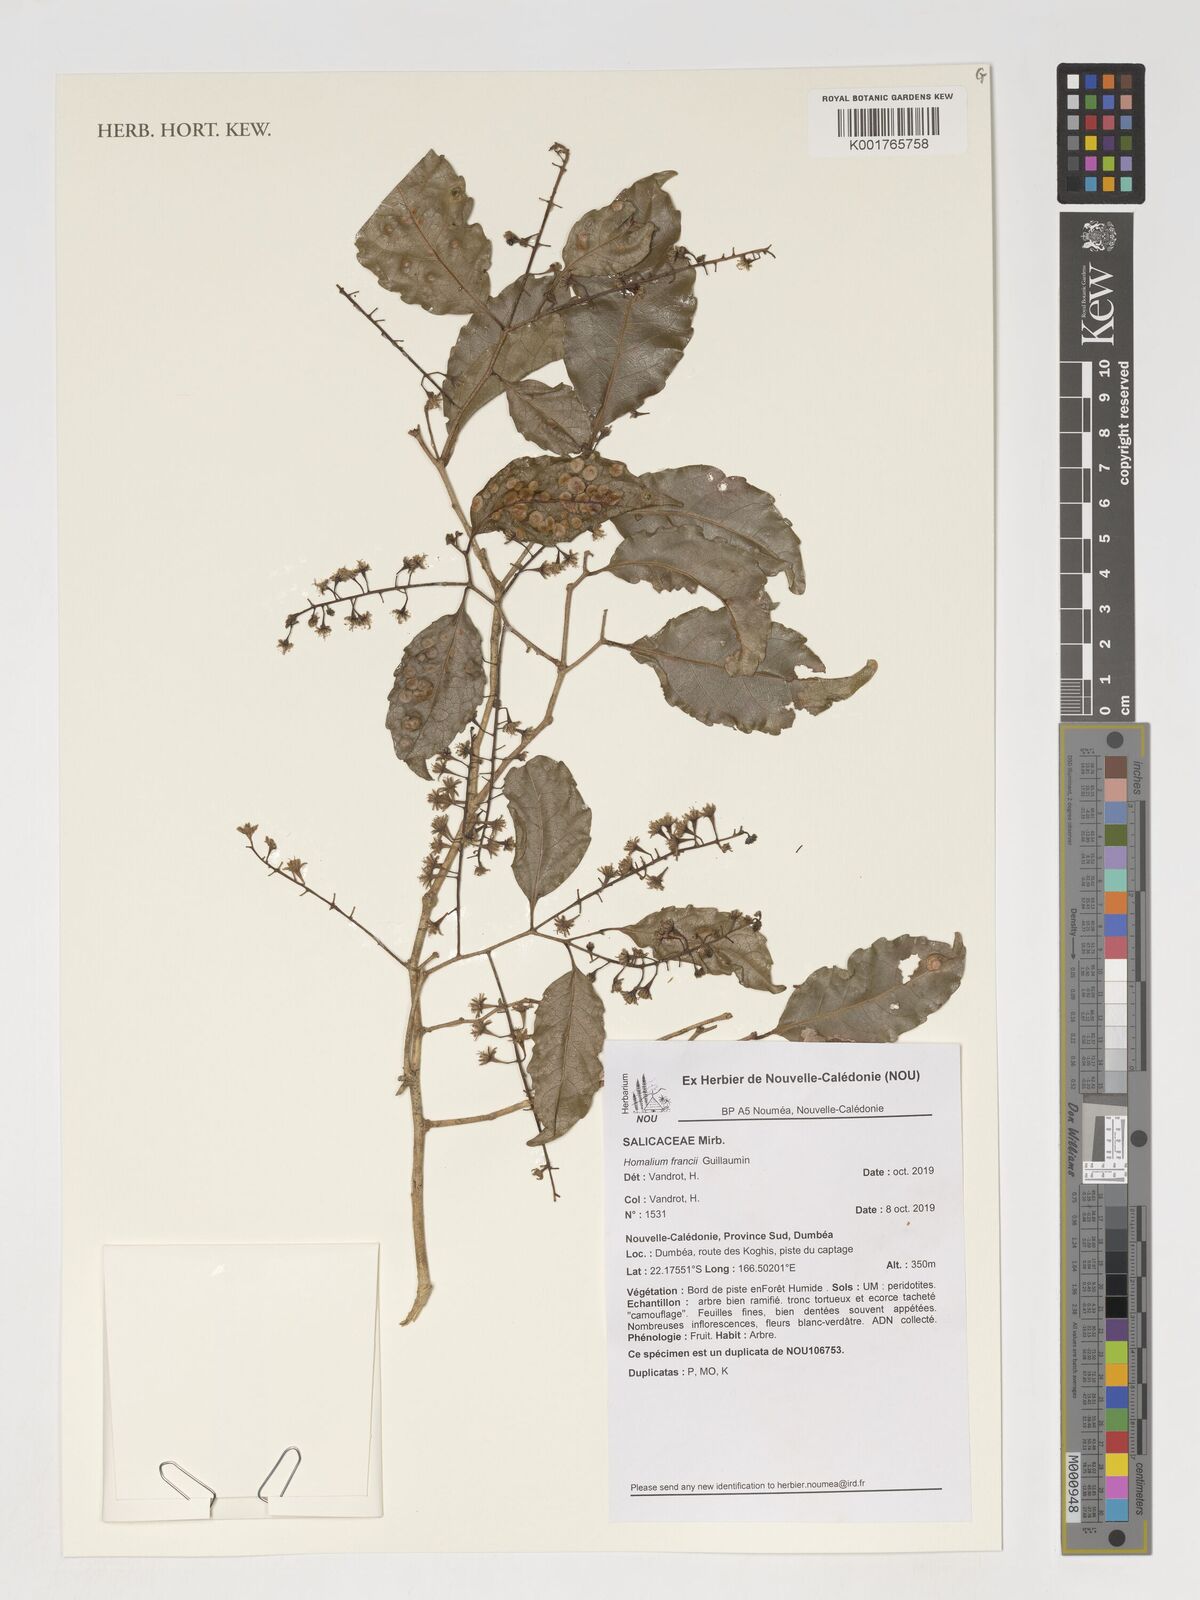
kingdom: Plantae
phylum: Tracheophyta
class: Magnoliopsida
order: Malpighiales
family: Salicaceae
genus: Homalium
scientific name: Homalium francii
